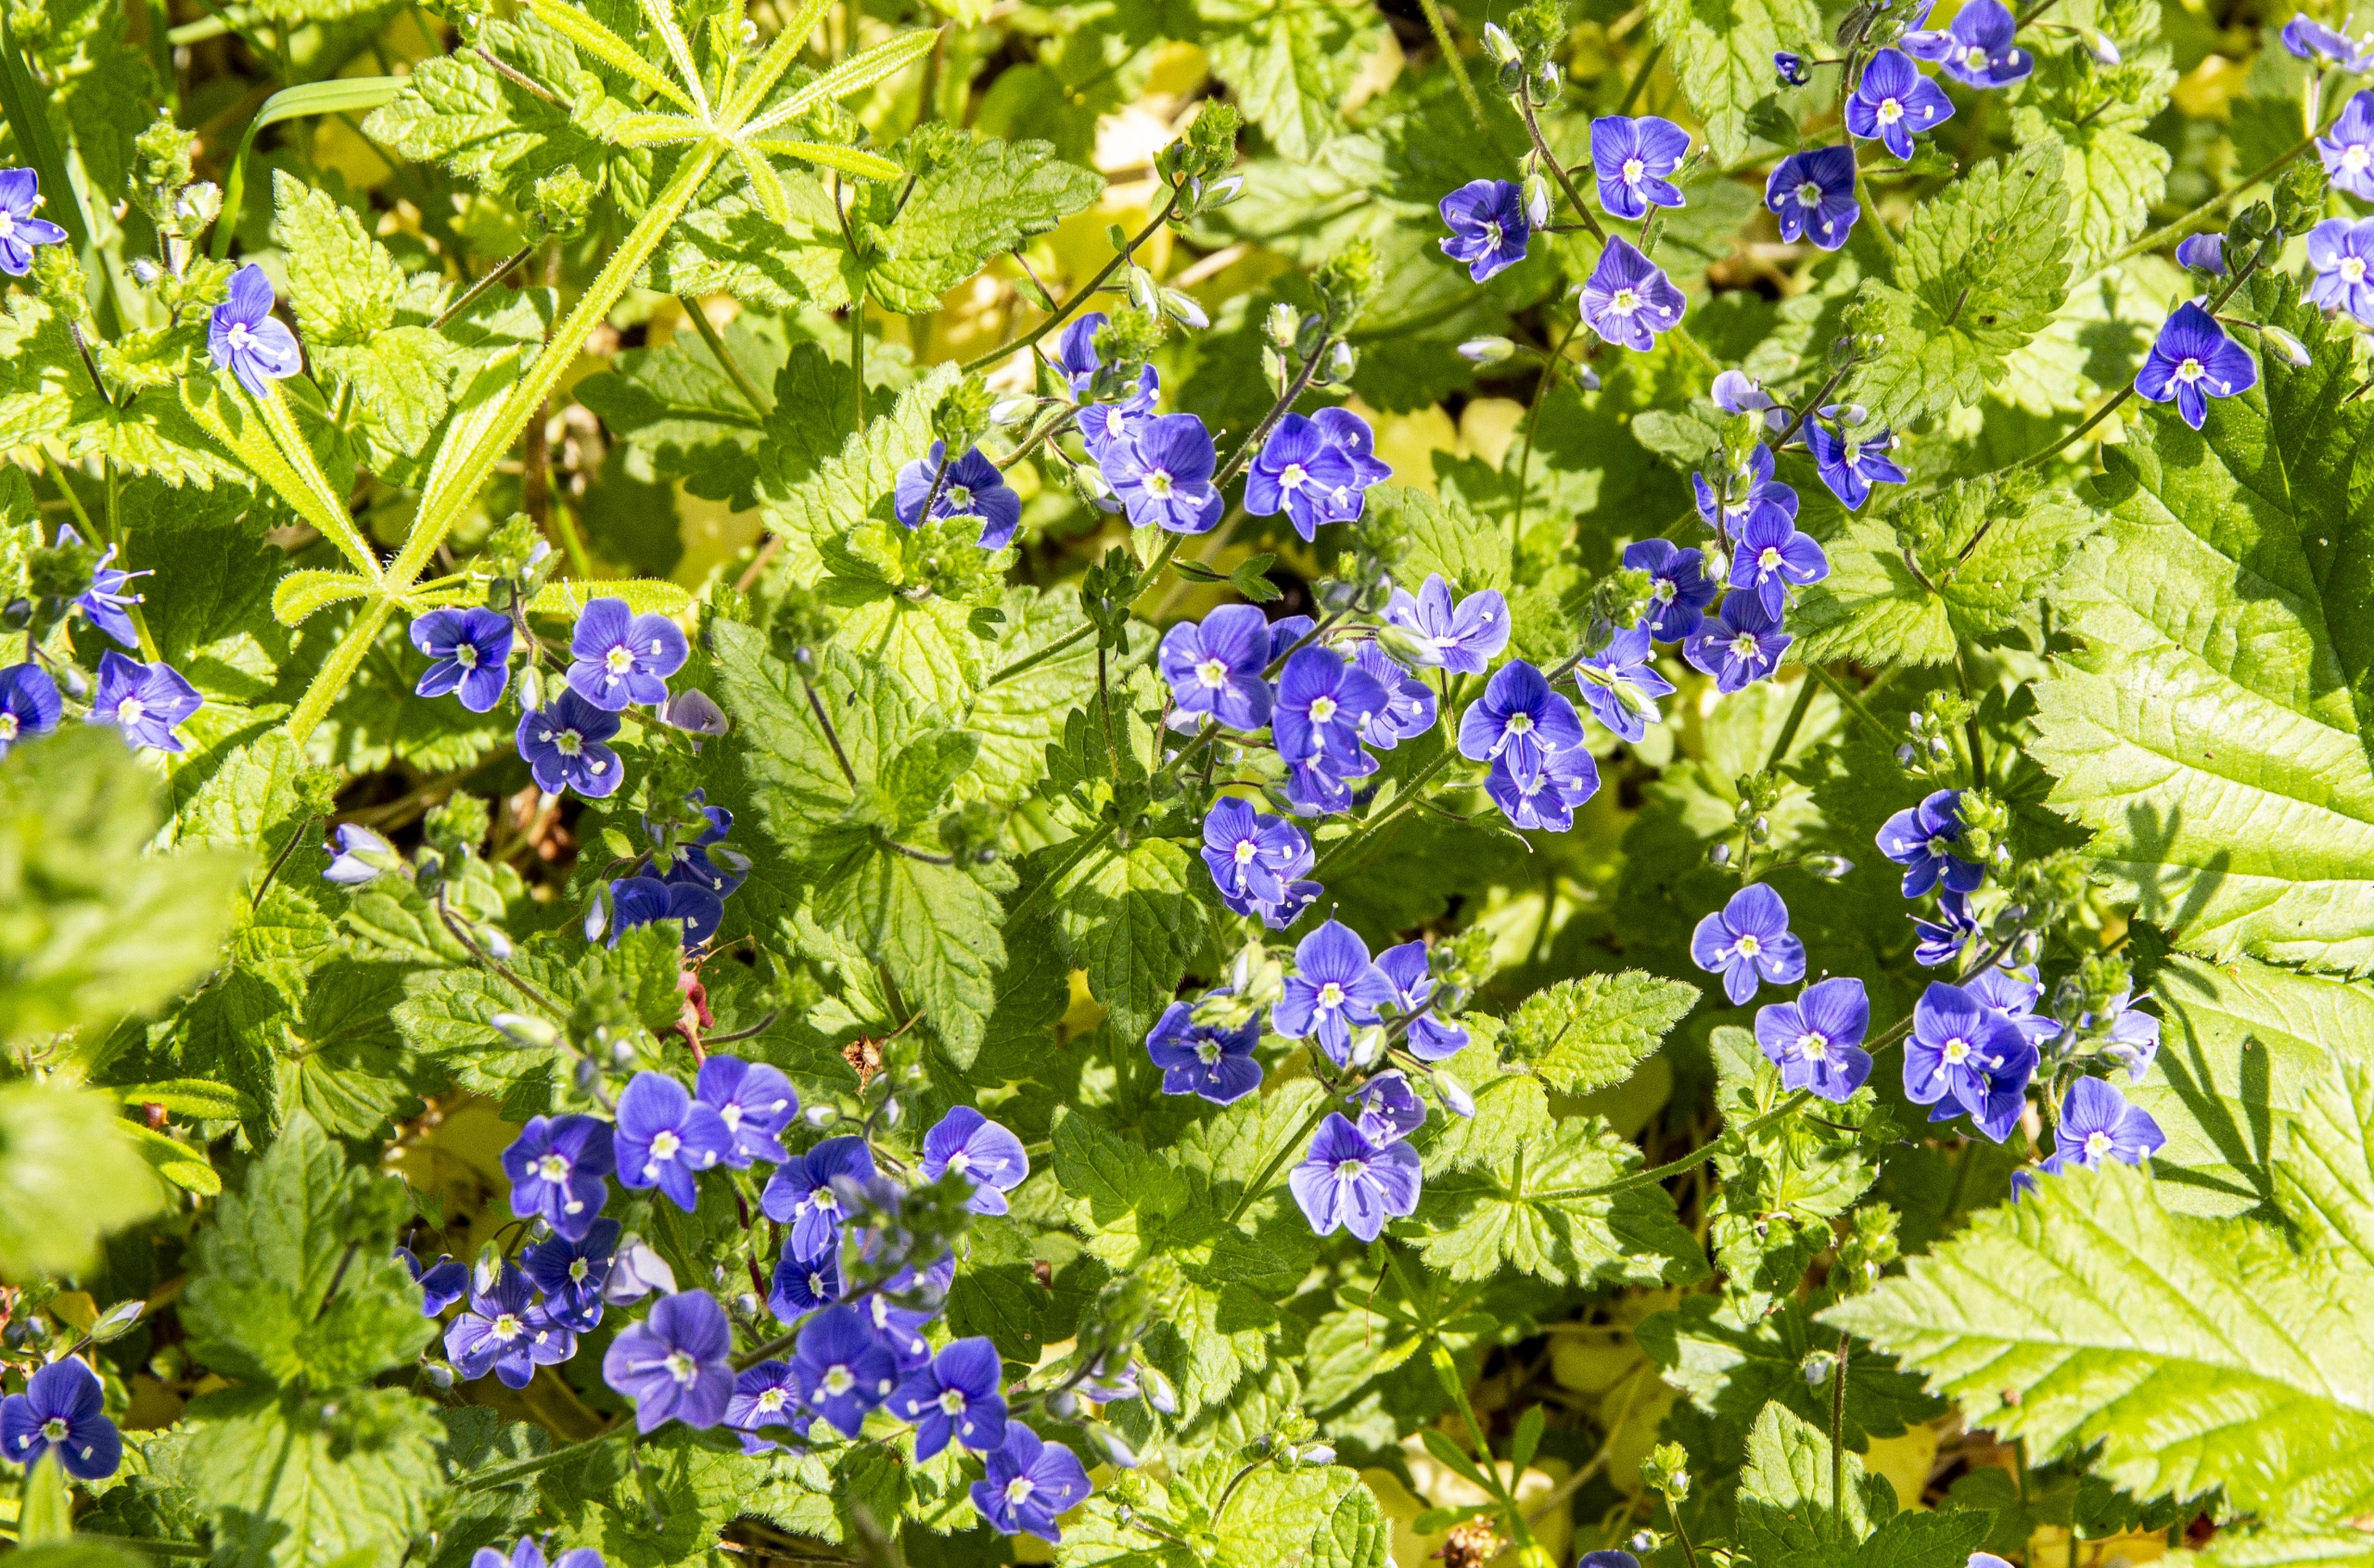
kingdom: Plantae
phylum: Tracheophyta
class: Magnoliopsida
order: Lamiales
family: Plantaginaceae
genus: Veronica
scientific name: Veronica chamaedrys
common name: Tveskægget ærenpris
